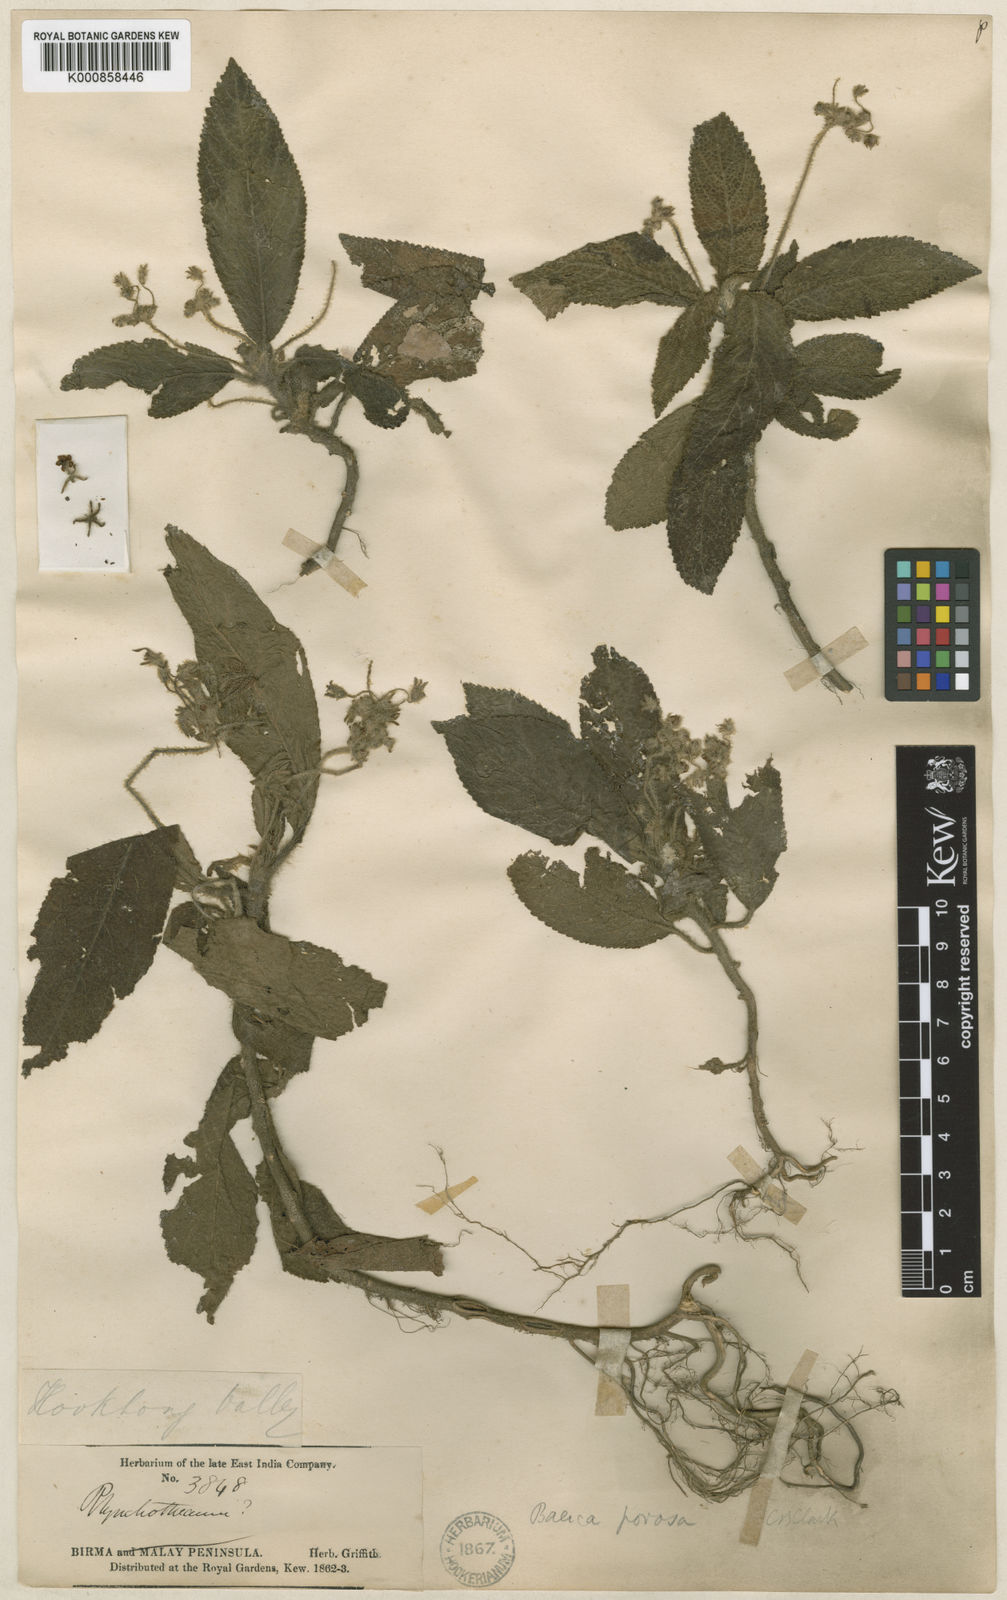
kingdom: Plantae
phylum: Tracheophyta
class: Magnoliopsida
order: Lamiales
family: Gesneriaceae
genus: Boeica
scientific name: Boeica porosa
